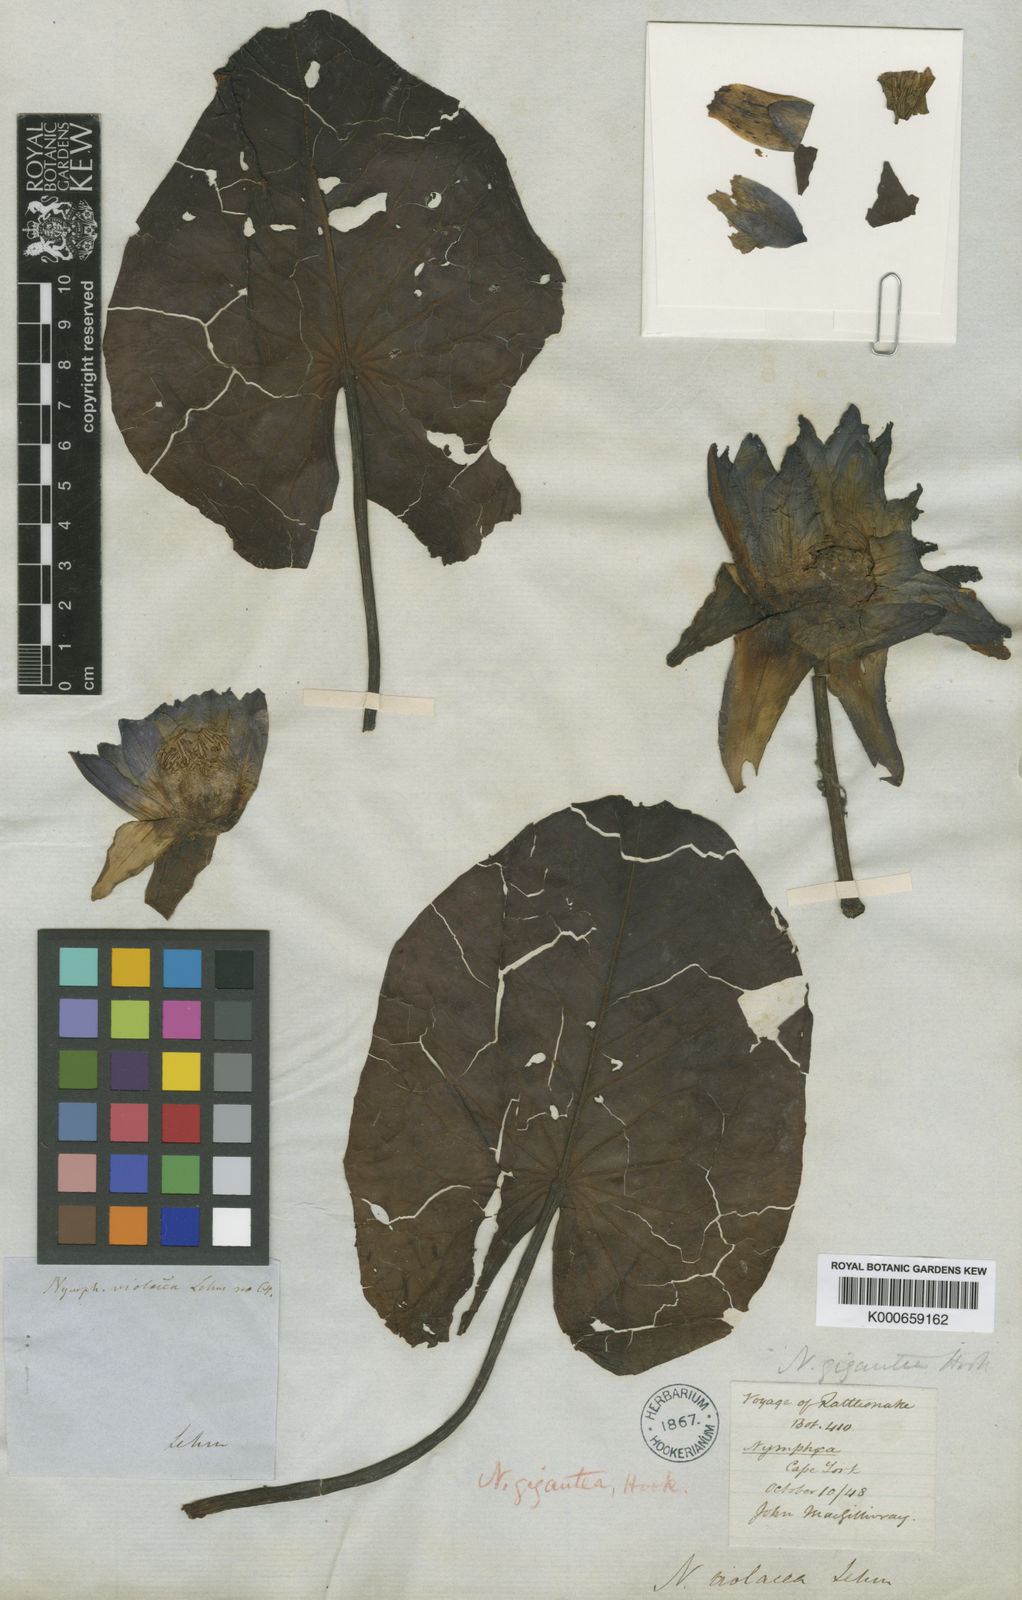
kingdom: Plantae
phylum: Tracheophyta
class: Magnoliopsida
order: Nymphaeales
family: Nymphaeaceae
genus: Nymphaea
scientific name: Nymphaea violacea
